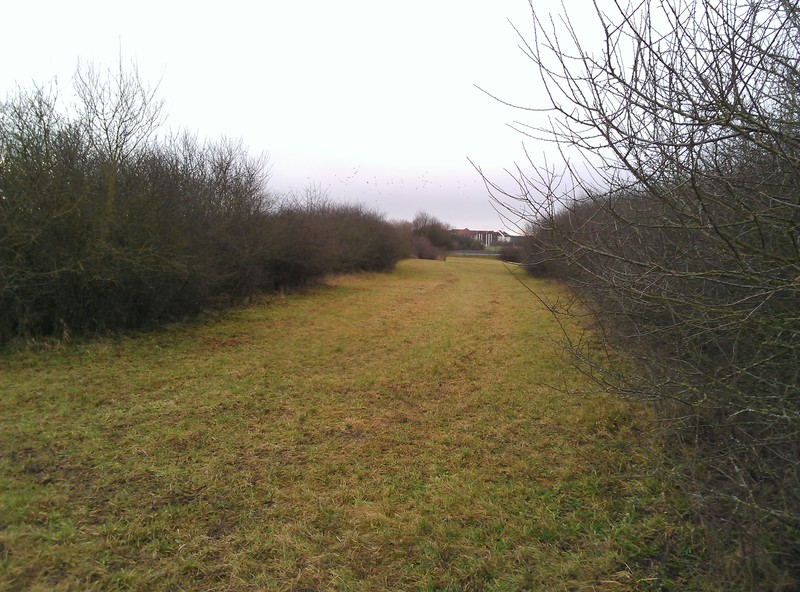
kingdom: Fungi
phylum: Ascomycota
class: Dothideomycetes
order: Capnodiales
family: Cladosporiaceae
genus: Cladosporium
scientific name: Cladosporium licheniphilum
